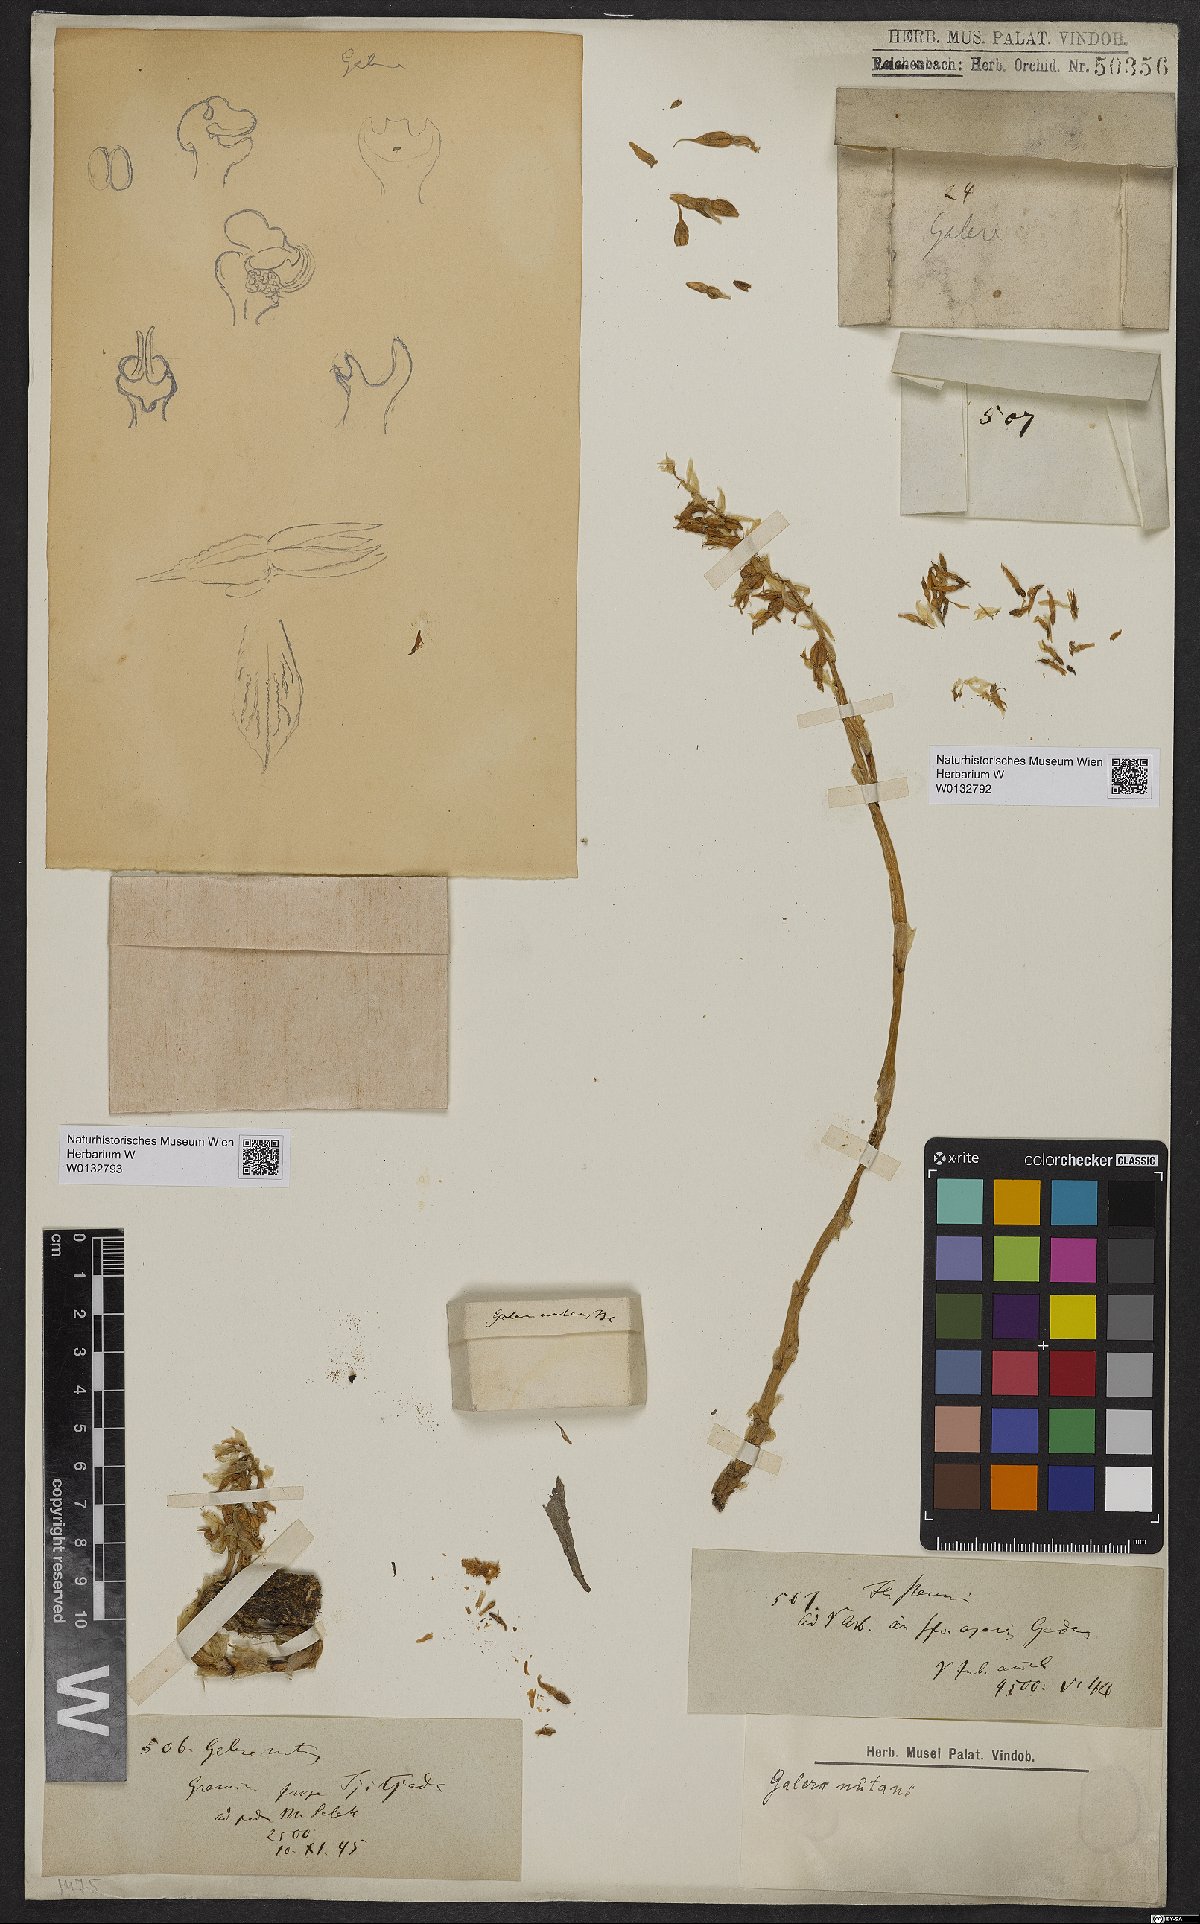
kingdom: Plantae
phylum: Tracheophyta
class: Liliopsida
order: Asparagales
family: Orchidaceae
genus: Epipogium
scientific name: Epipogium roseum
